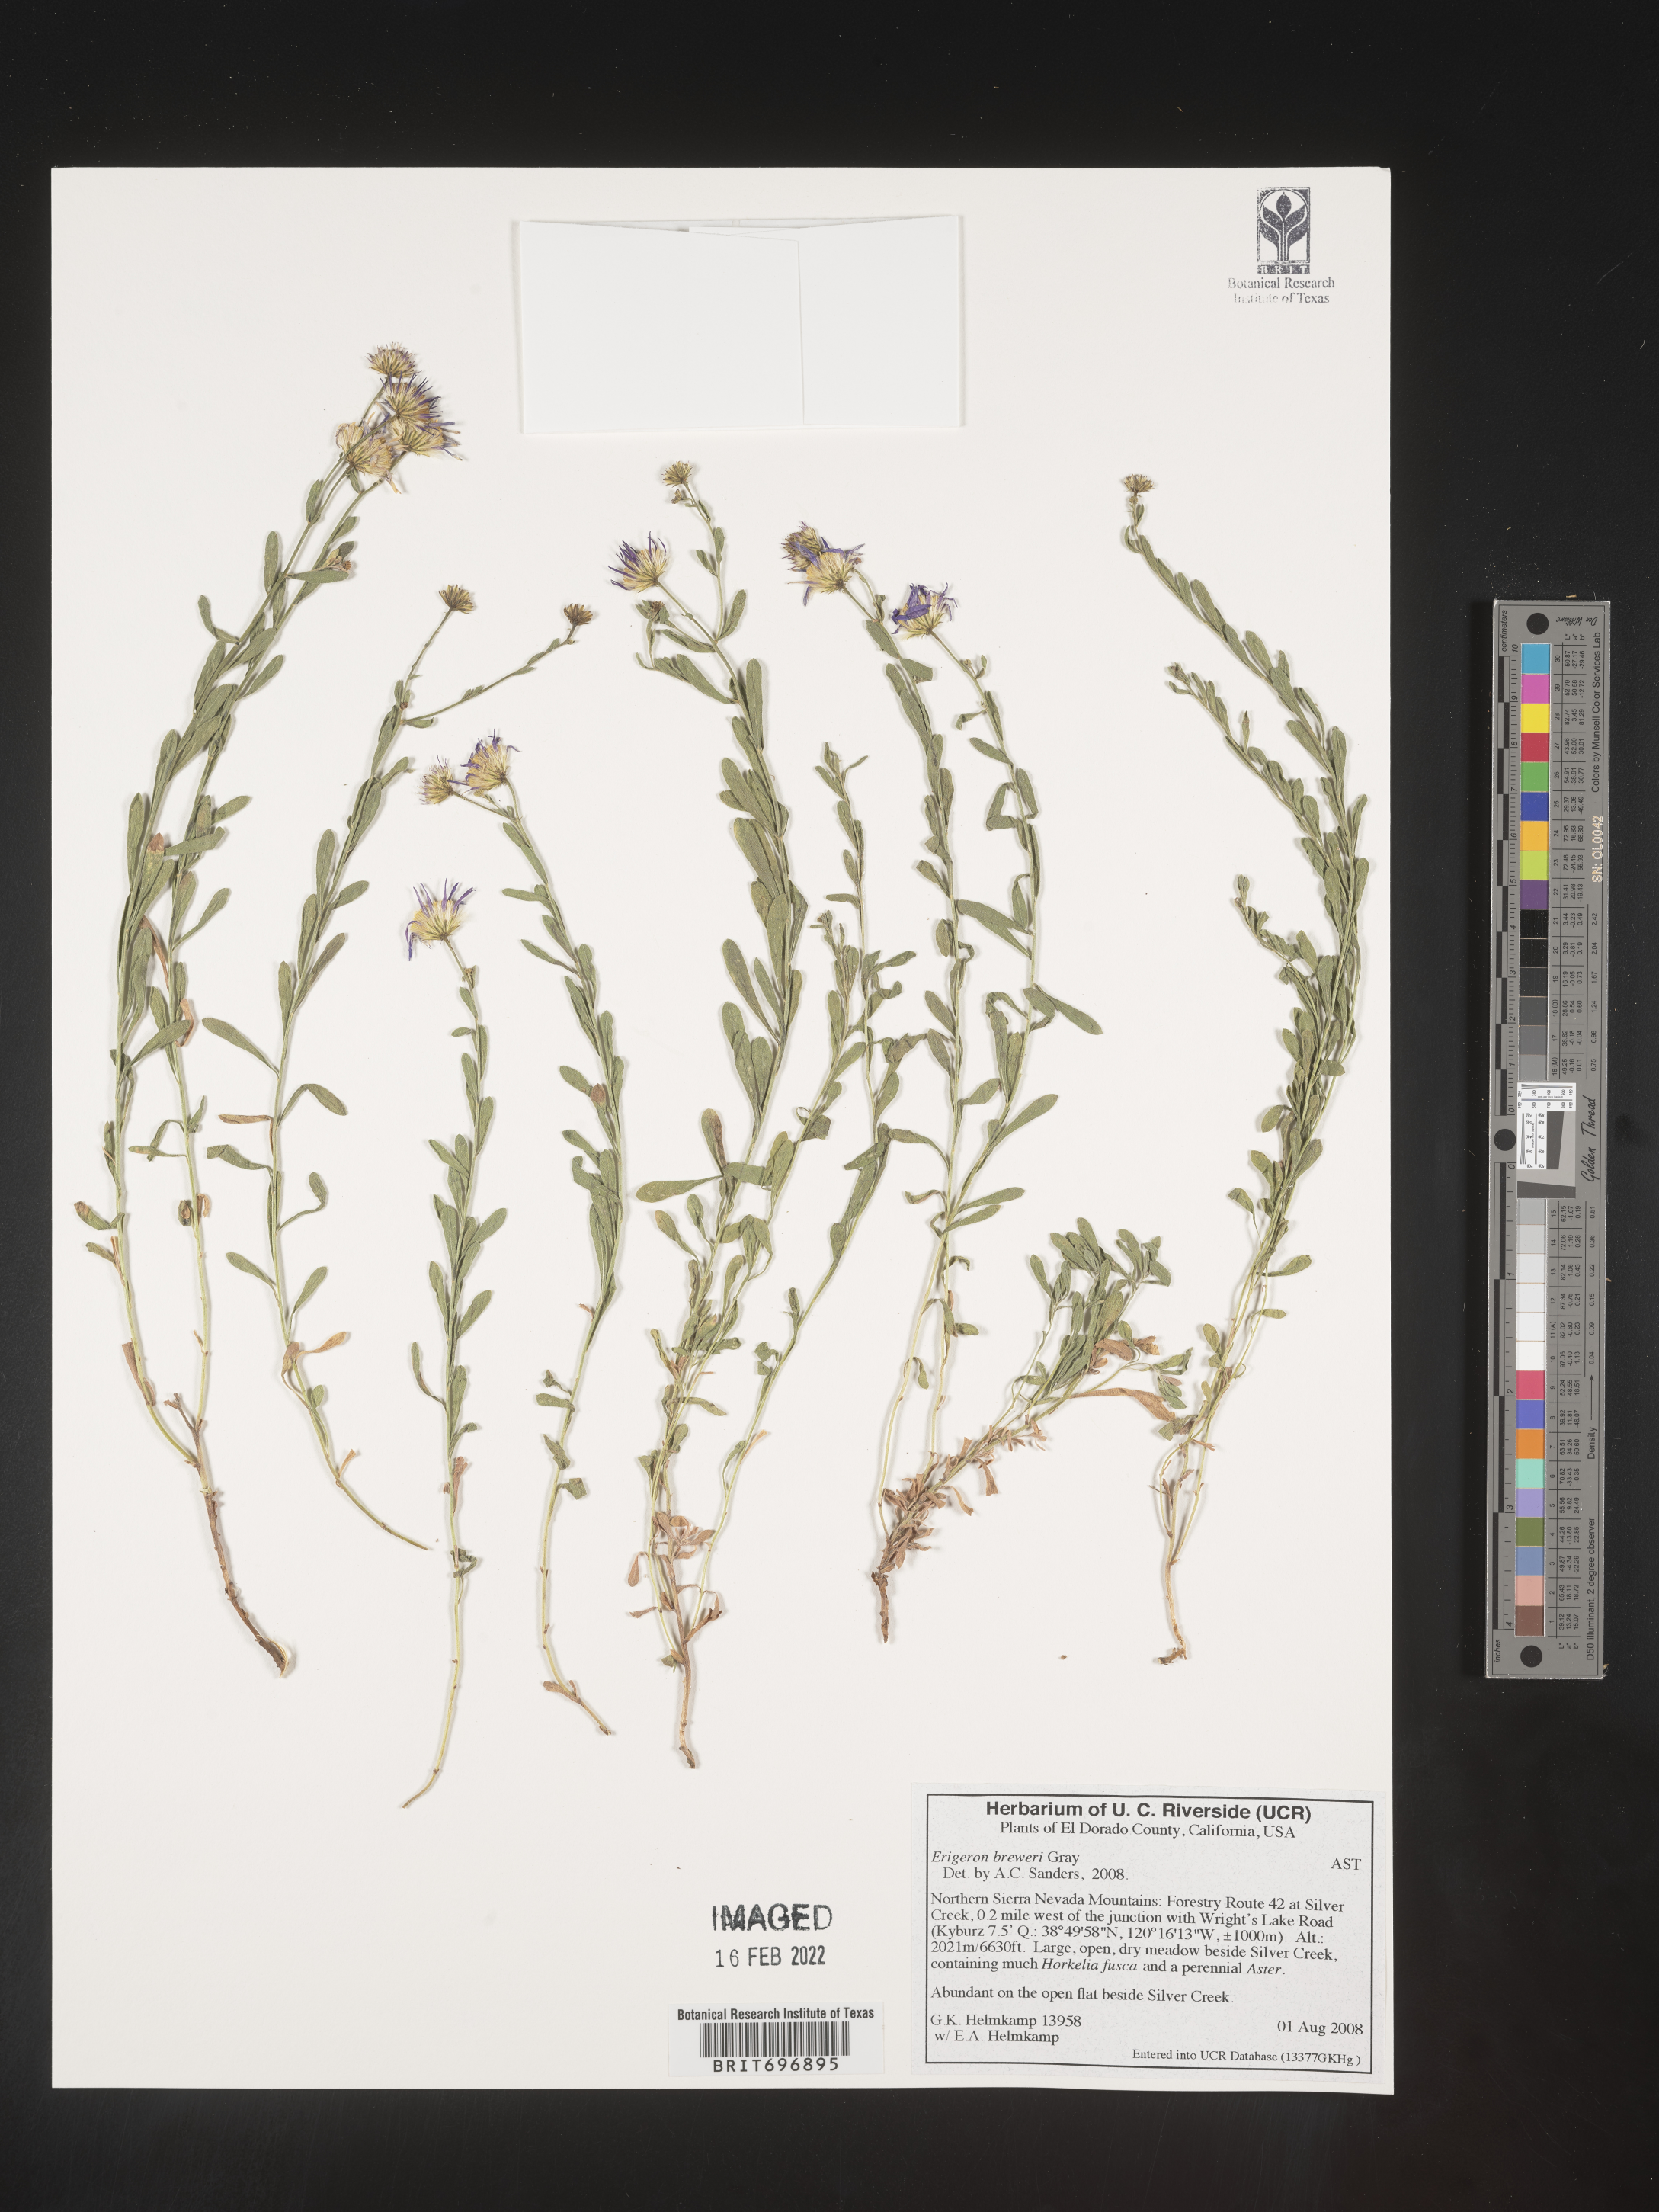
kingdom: Plantae
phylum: Tracheophyta
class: Magnoliopsida
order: Asterales
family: Asteraceae
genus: Erigeron
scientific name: Erigeron breweri
